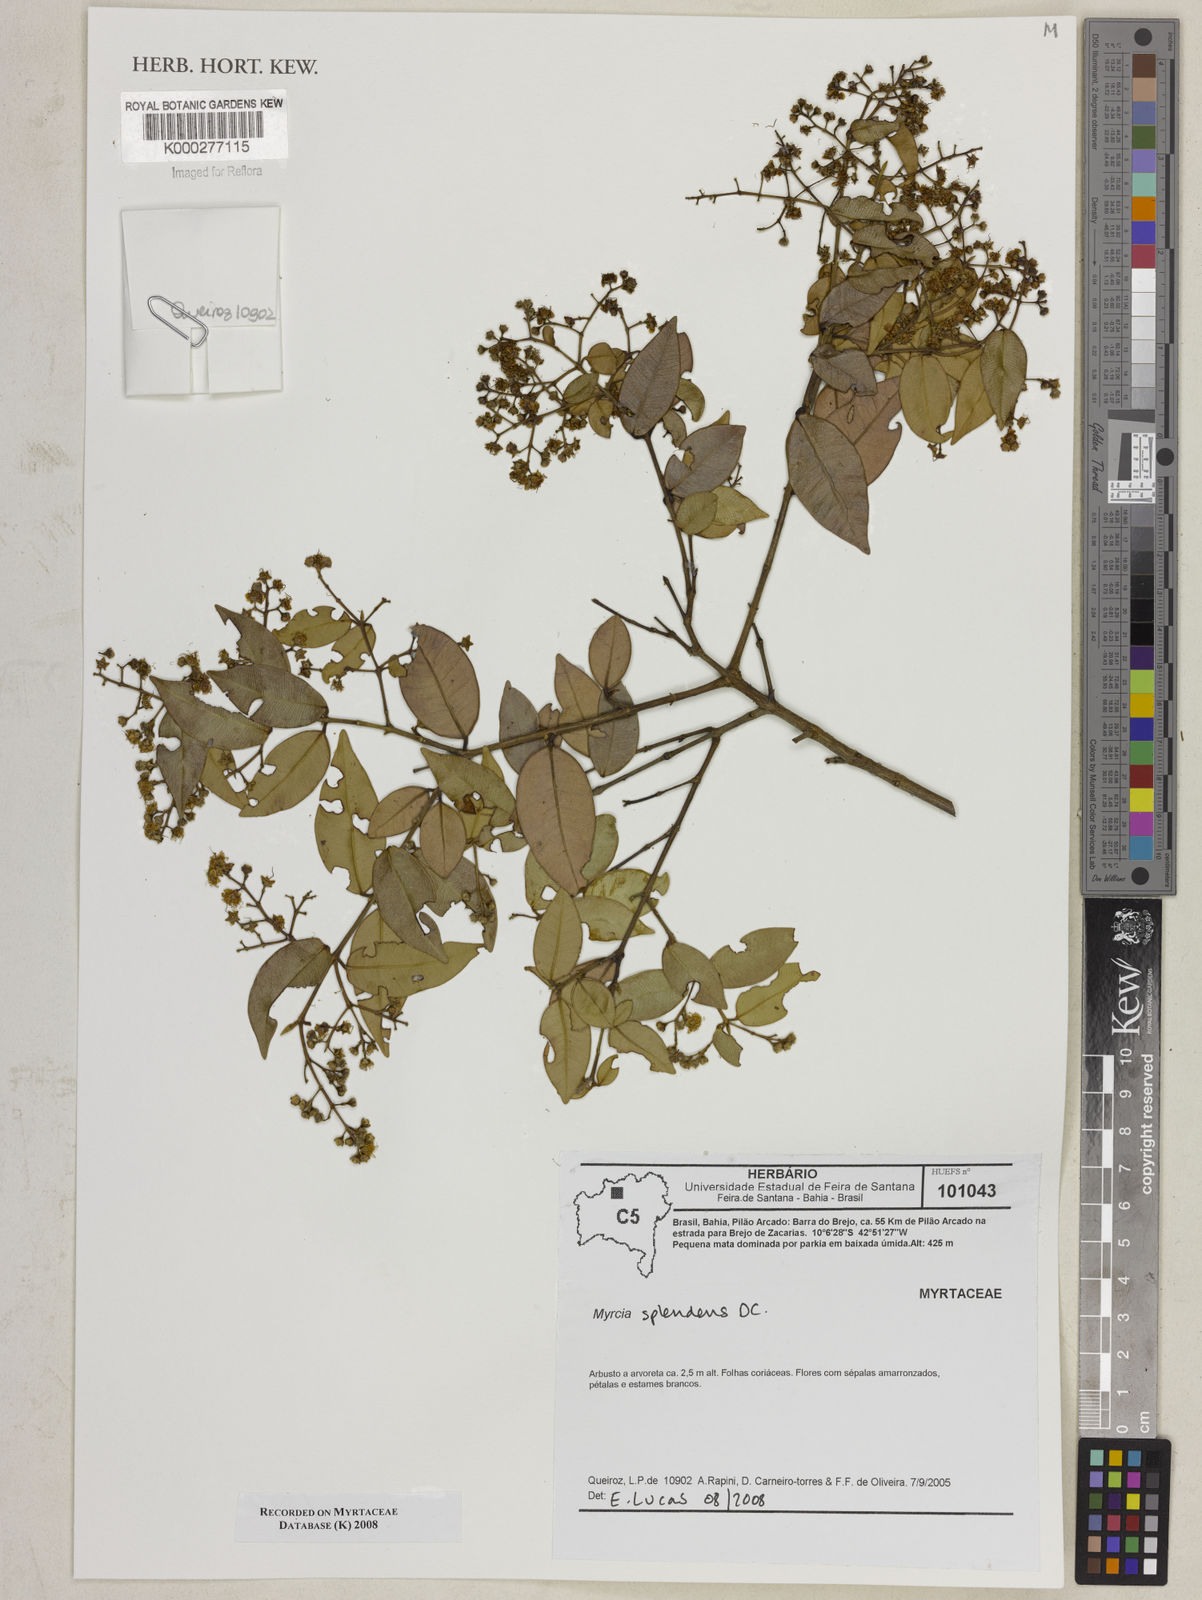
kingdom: Plantae
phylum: Tracheophyta
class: Magnoliopsida
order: Myrtales
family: Myrtaceae
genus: Myrcia
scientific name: Myrcia splendens
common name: Surinam cherry
